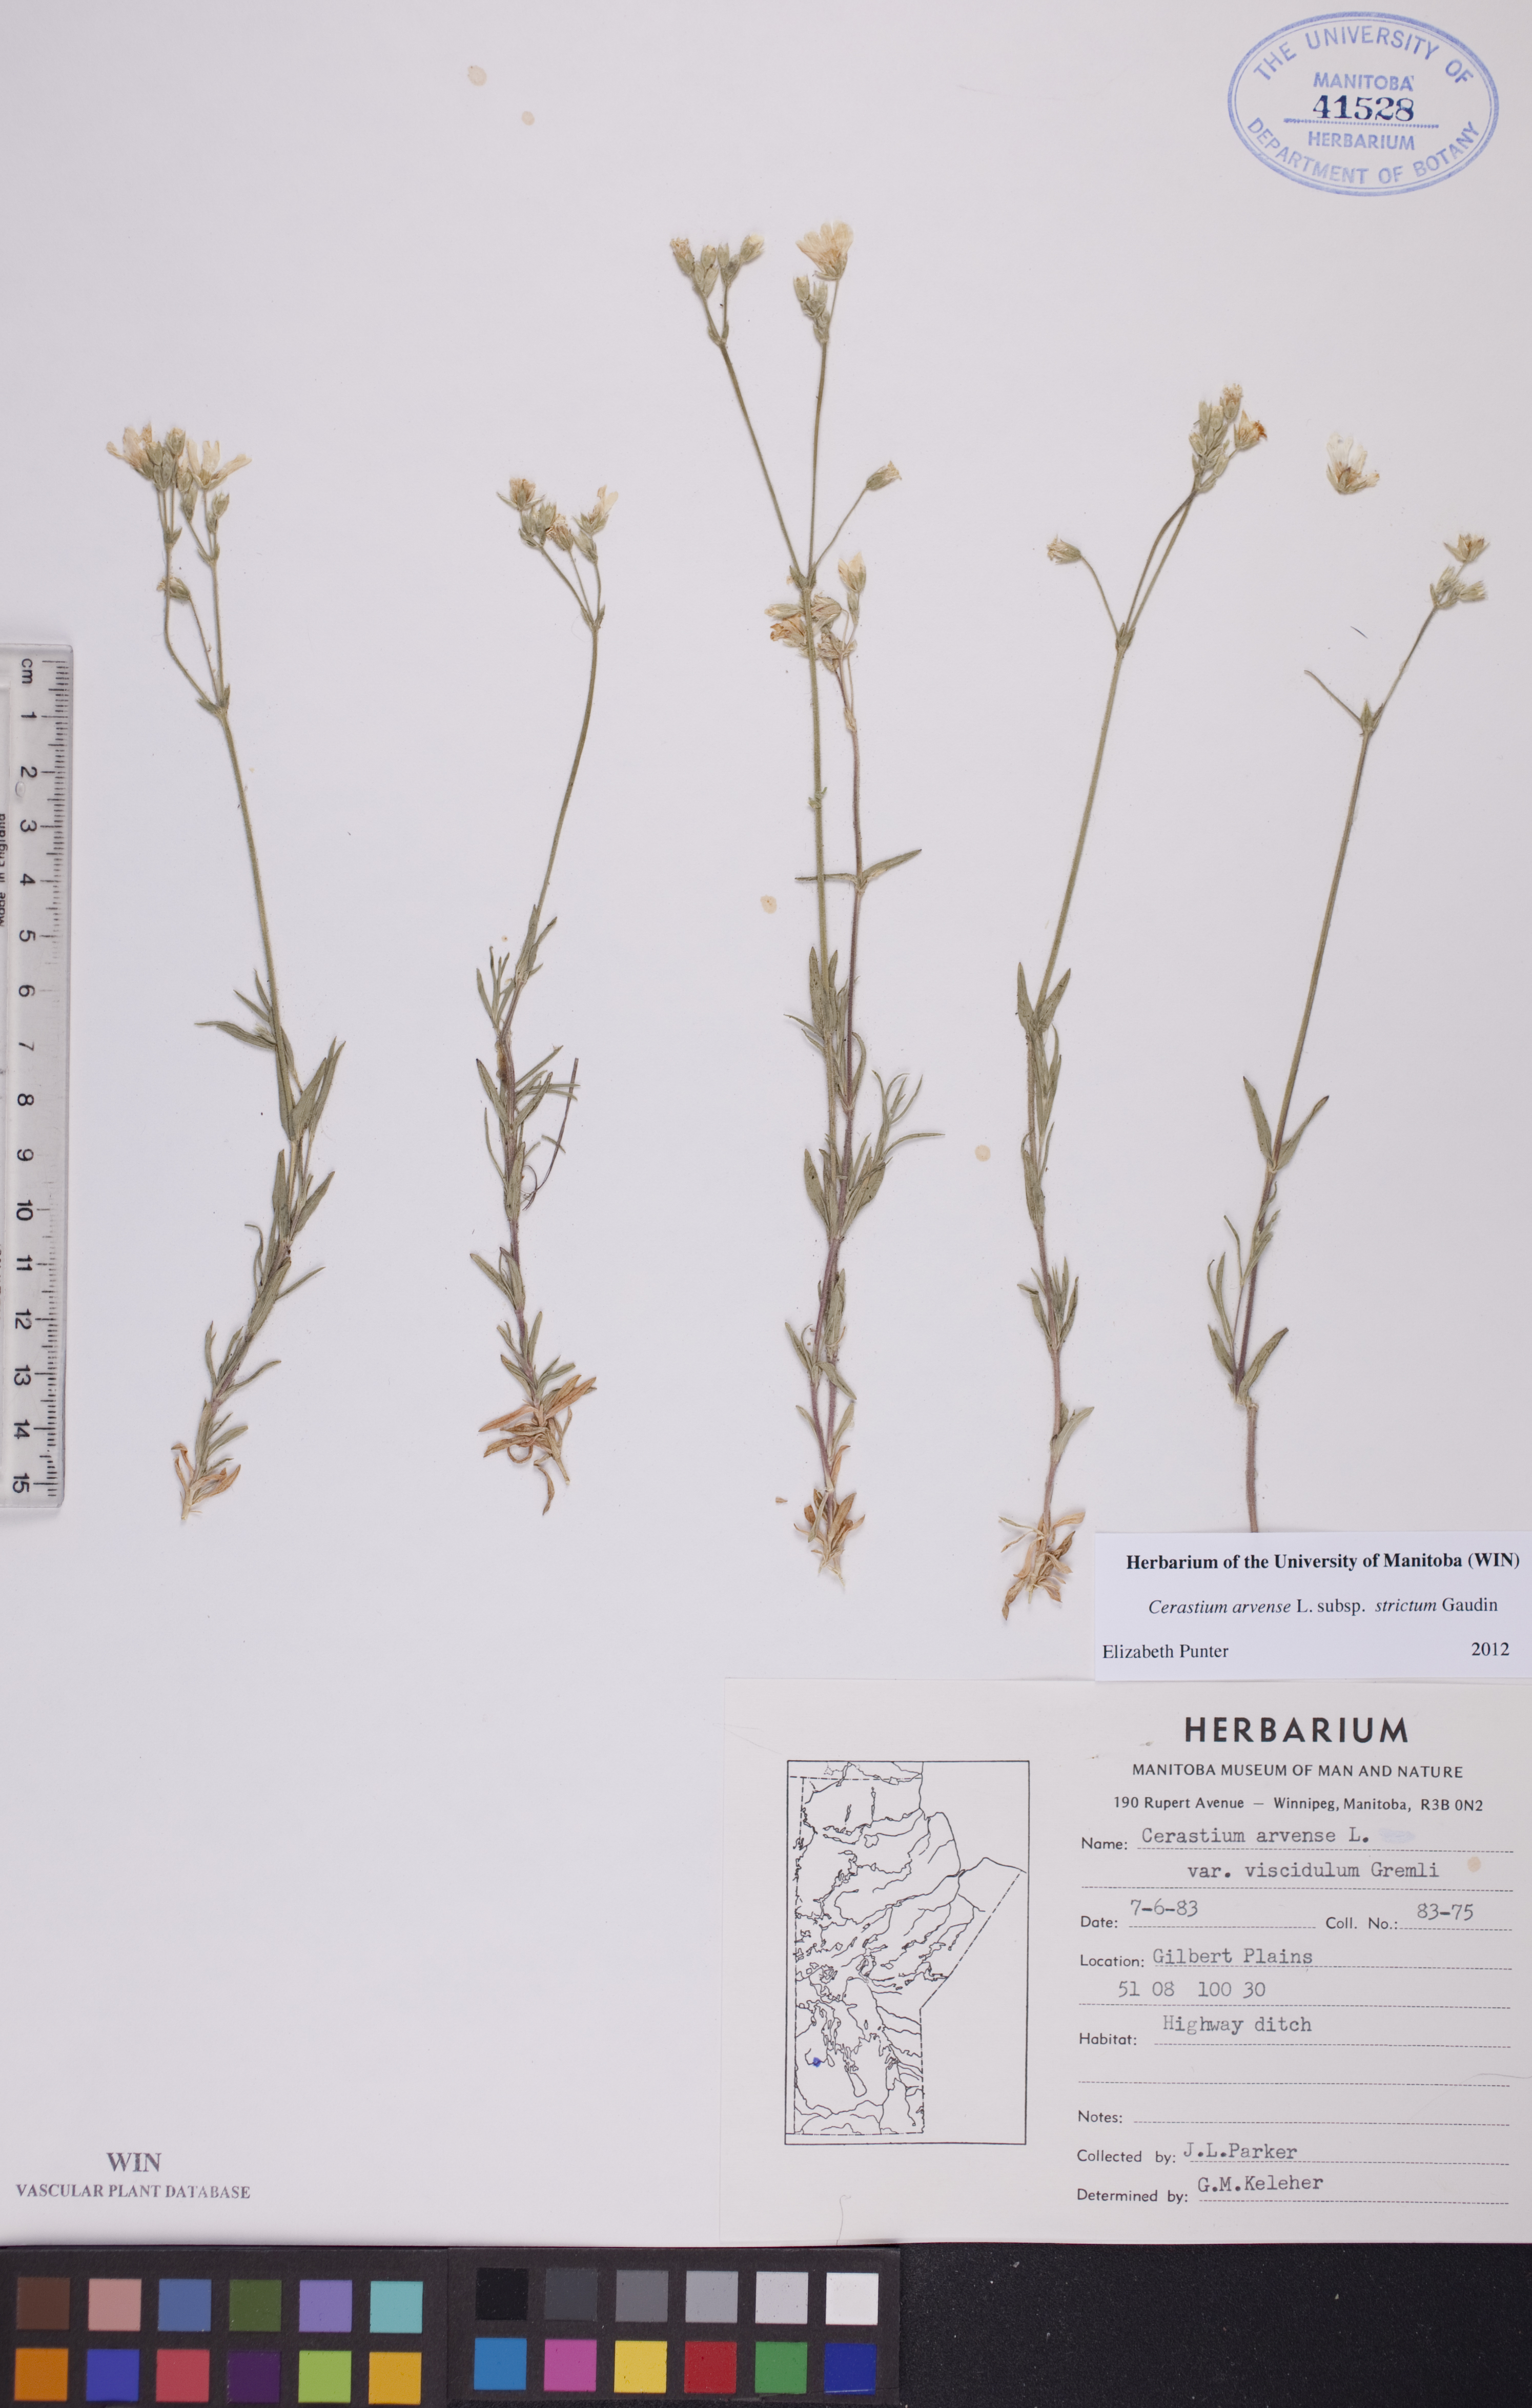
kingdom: Plantae
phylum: Tracheophyta
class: Magnoliopsida
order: Caryophyllales
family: Caryophyllaceae
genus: Cerastium
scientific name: Cerastium elongatum
